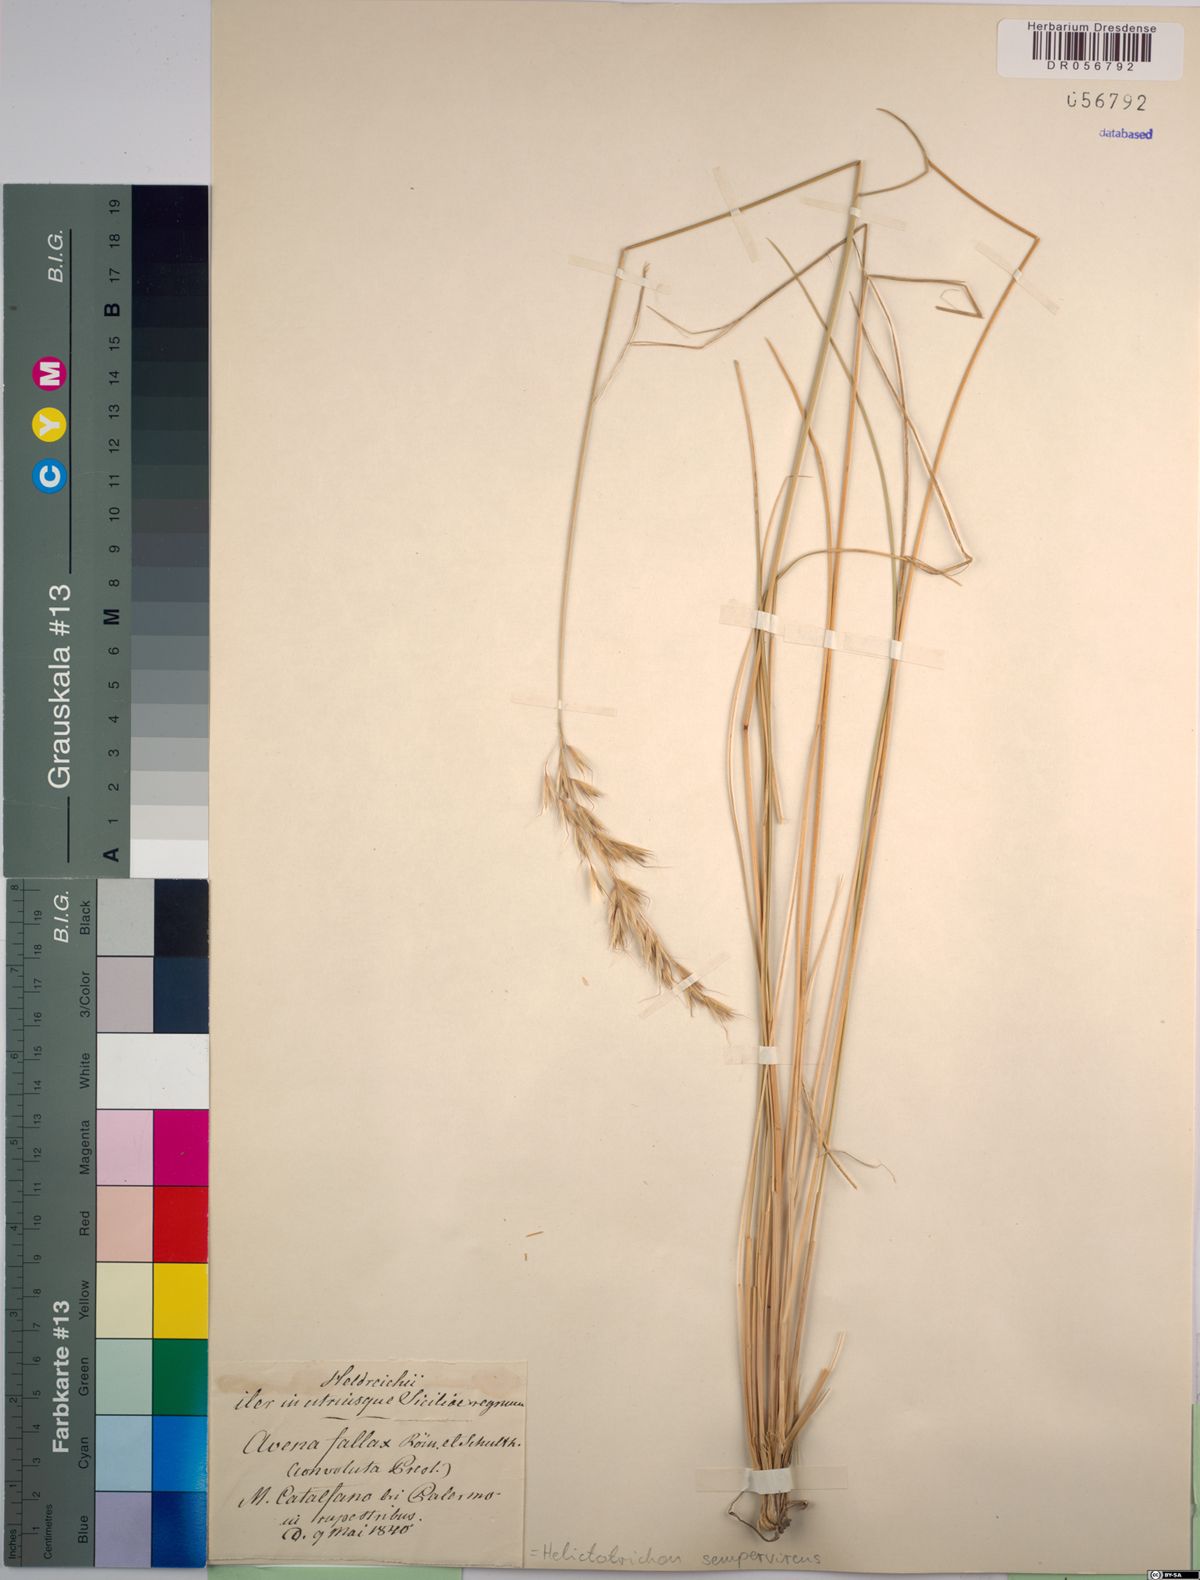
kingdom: Plantae
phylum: Tracheophyta
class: Liliopsida
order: Poales
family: Poaceae
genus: Helictotrichon
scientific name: Helictotrichon sempervirens
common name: Blue oat-grass
